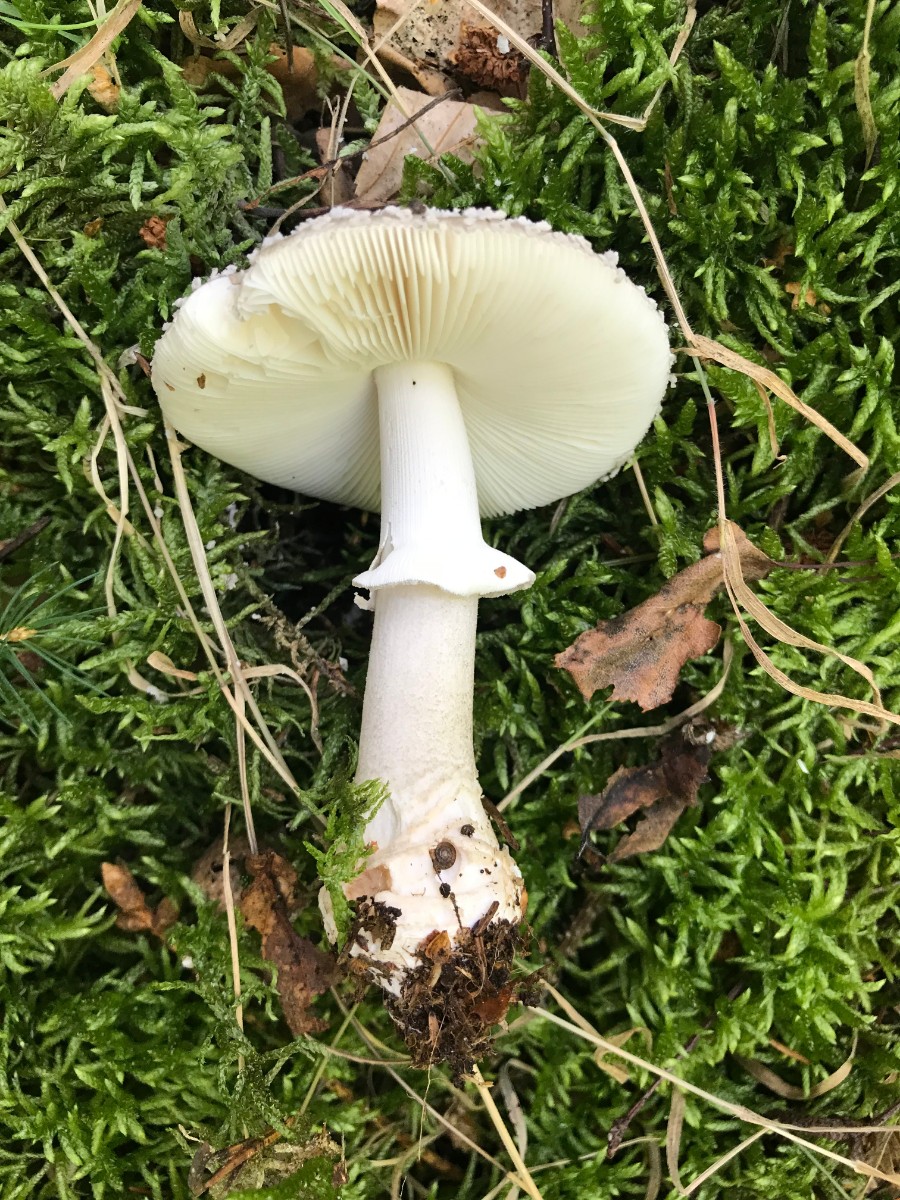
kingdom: Fungi
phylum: Basidiomycota
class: Agaricomycetes
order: Agaricales
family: Amanitaceae
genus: Amanita
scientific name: Amanita
